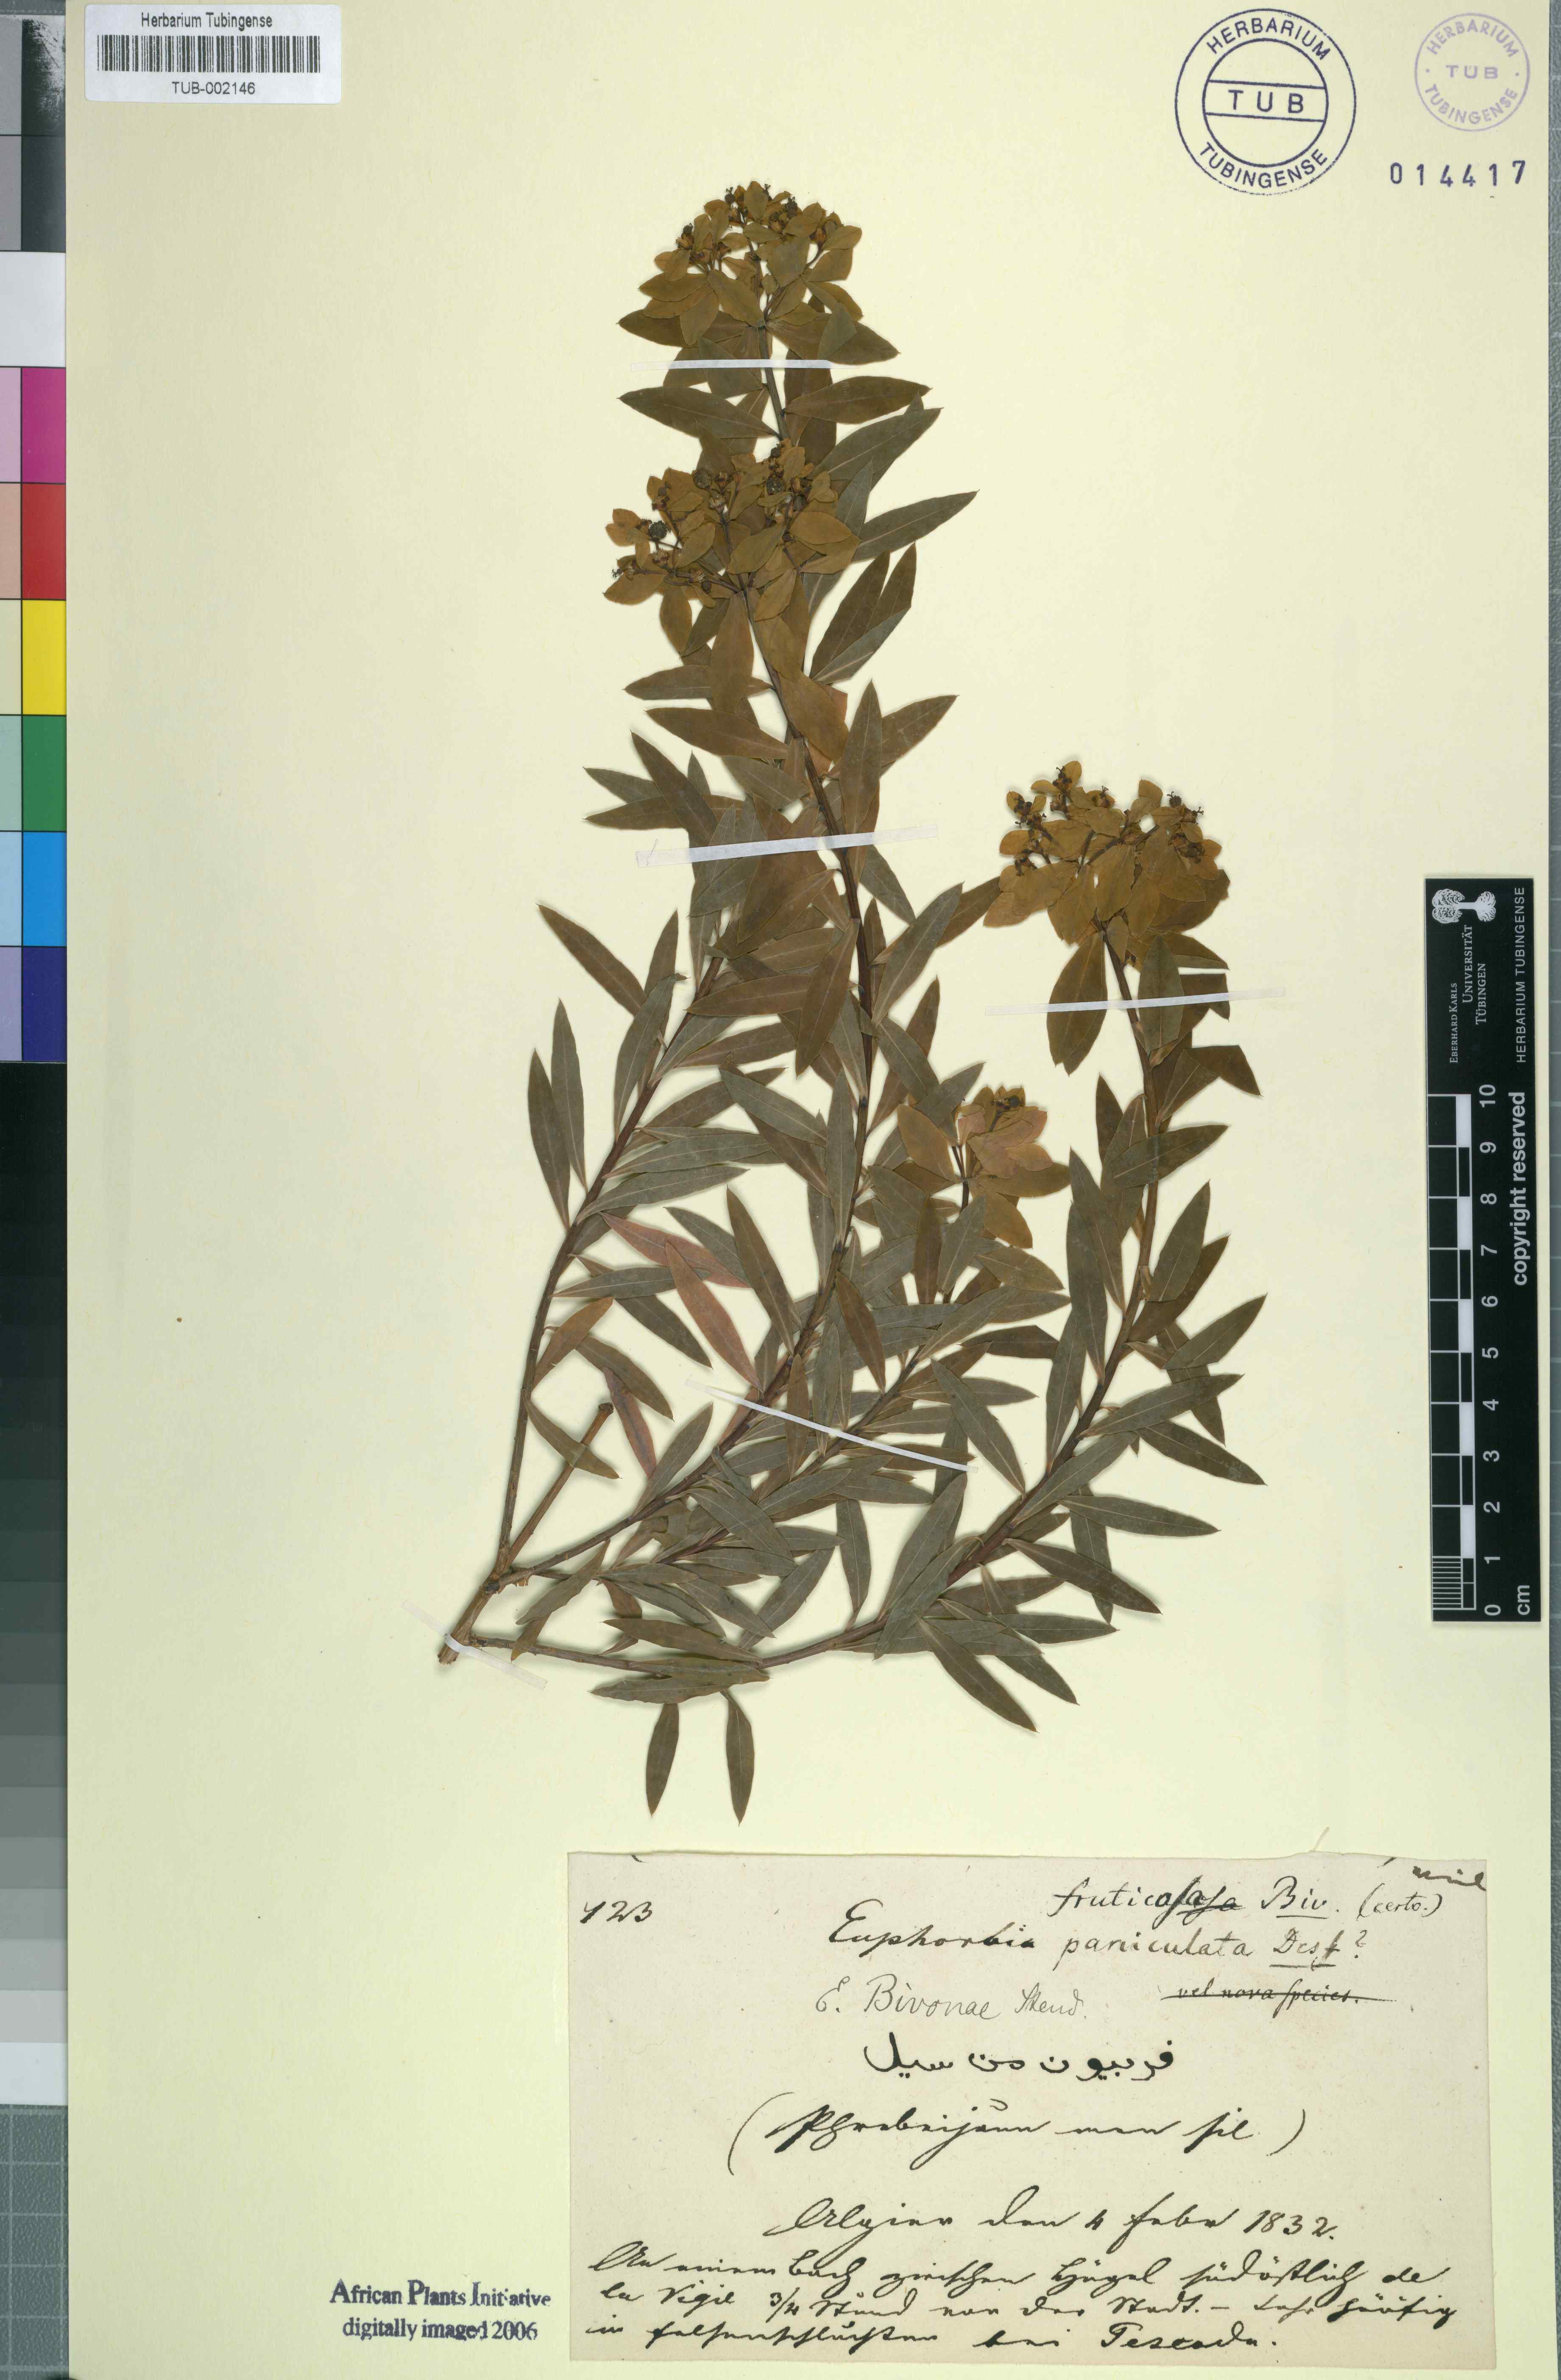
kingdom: Plantae
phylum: Tracheophyta
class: Magnoliopsida
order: Malpighiales
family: Euphorbiaceae
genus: Euphorbia
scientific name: Euphorbia bivonae
